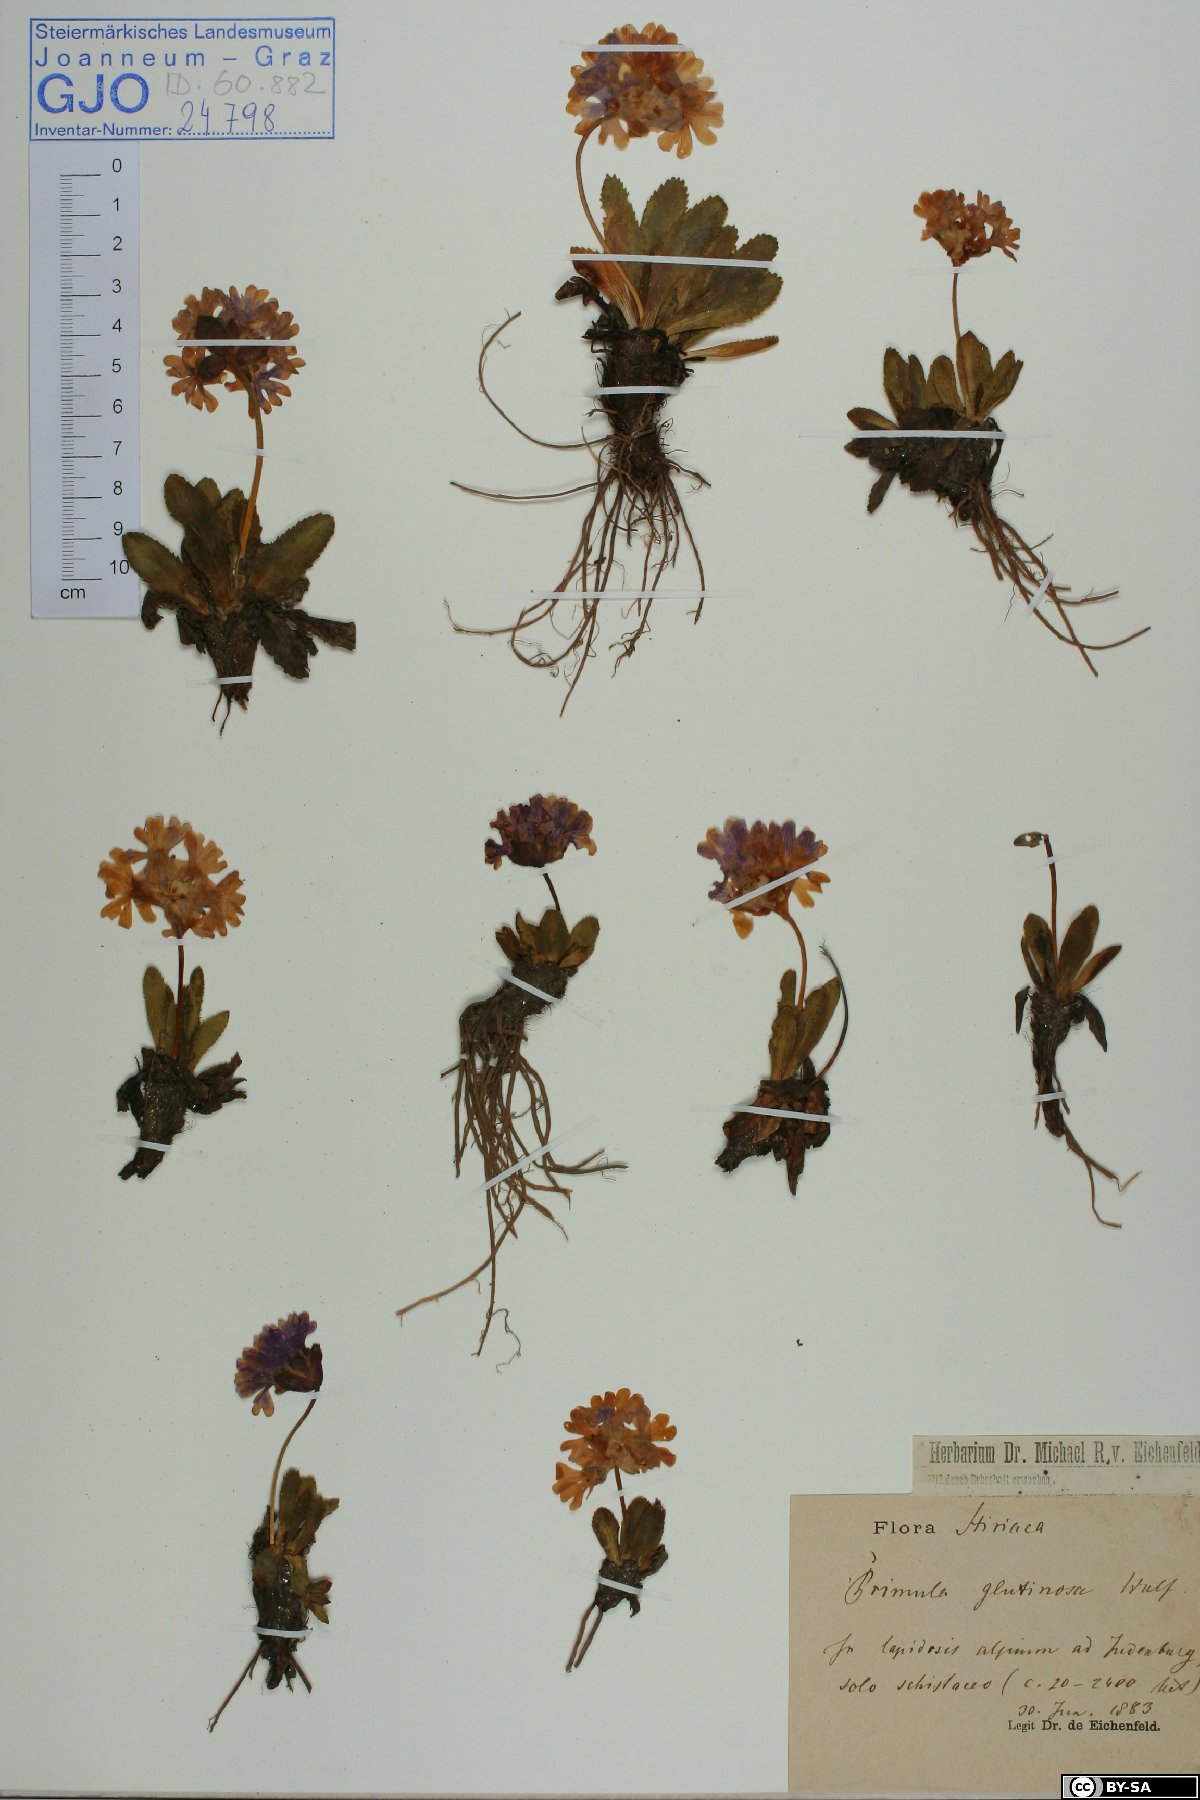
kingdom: Plantae
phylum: Tracheophyta
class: Magnoliopsida
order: Ericales
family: Primulaceae
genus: Primula
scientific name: Primula glutinosa
